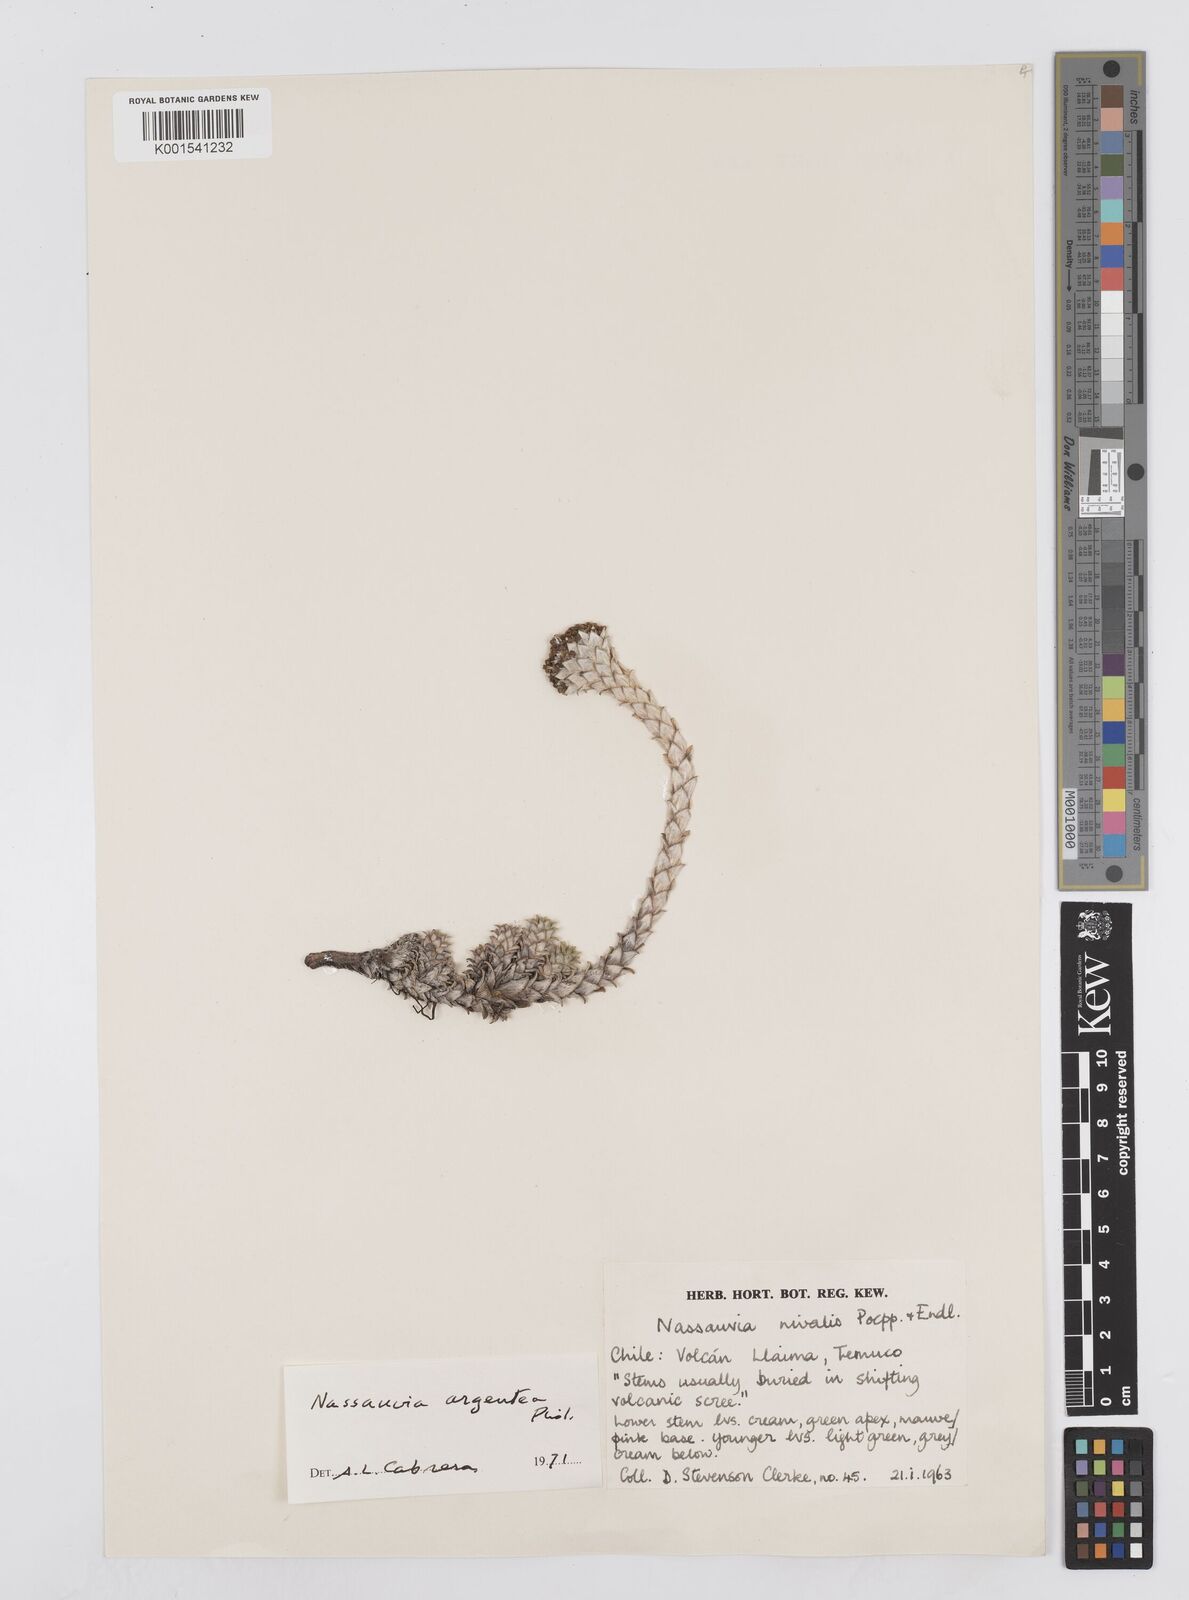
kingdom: Plantae
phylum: Tracheophyta
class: Magnoliopsida
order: Asterales
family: Asteraceae
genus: Nassauvia
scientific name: Nassauvia argentea
